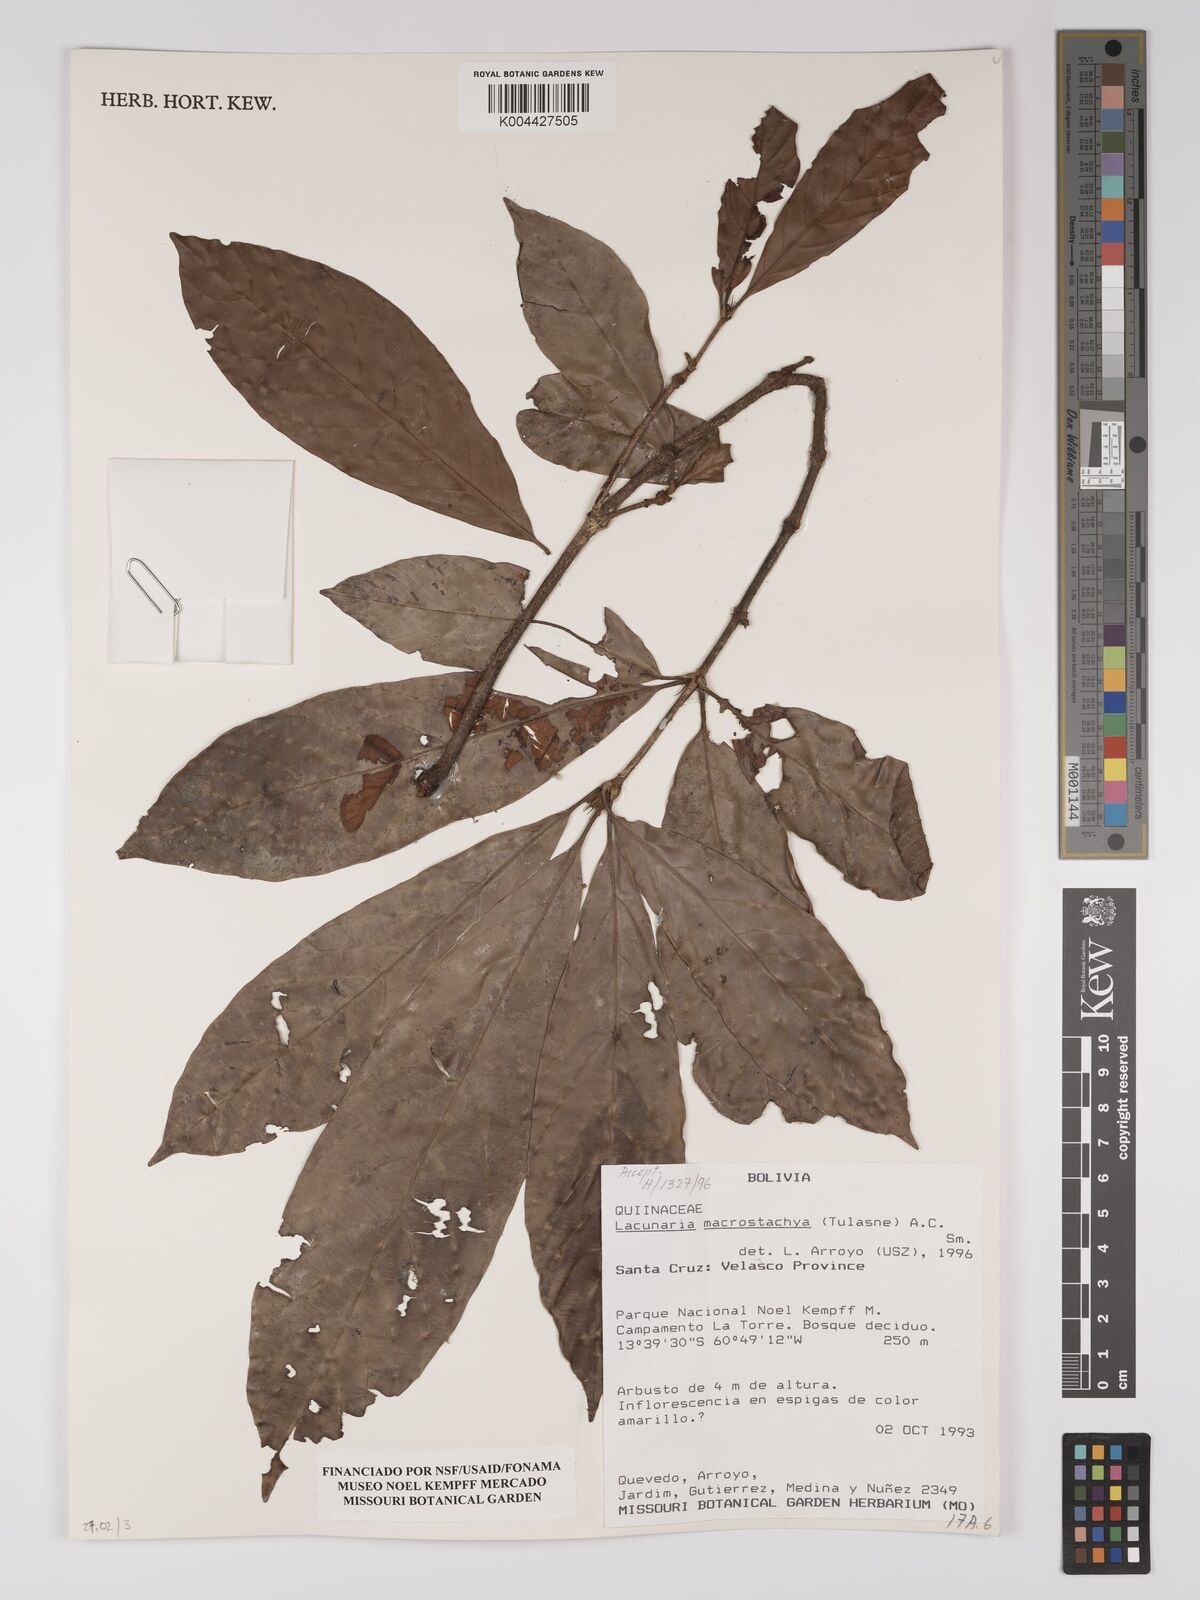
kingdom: Plantae
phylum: Tracheophyta
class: Magnoliopsida
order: Malpighiales
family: Quiinaceae
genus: Lacunaria
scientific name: Lacunaria macrostachya
